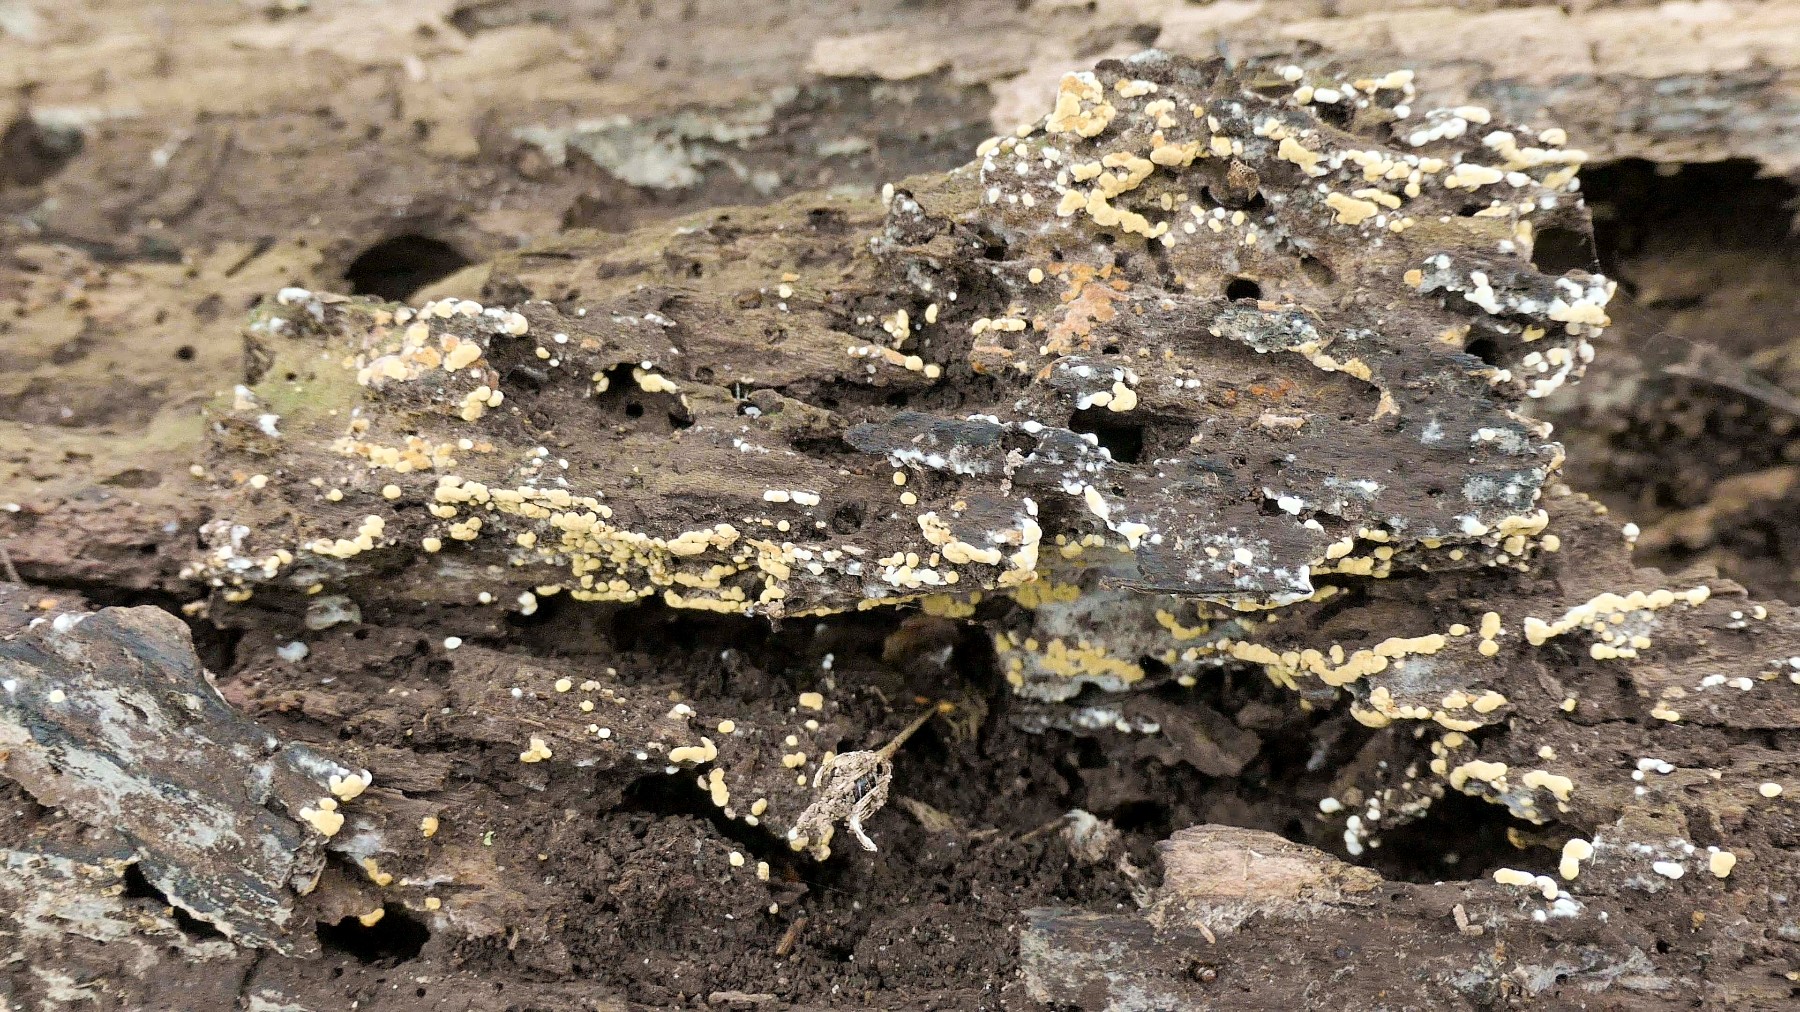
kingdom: Fungi
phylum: Basidiomycota
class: Agaricomycetes
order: Cantharellales
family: Botryobasidiaceae
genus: Botryobasidium
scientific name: Botryobasidium aureum
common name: gylden spindhinde
